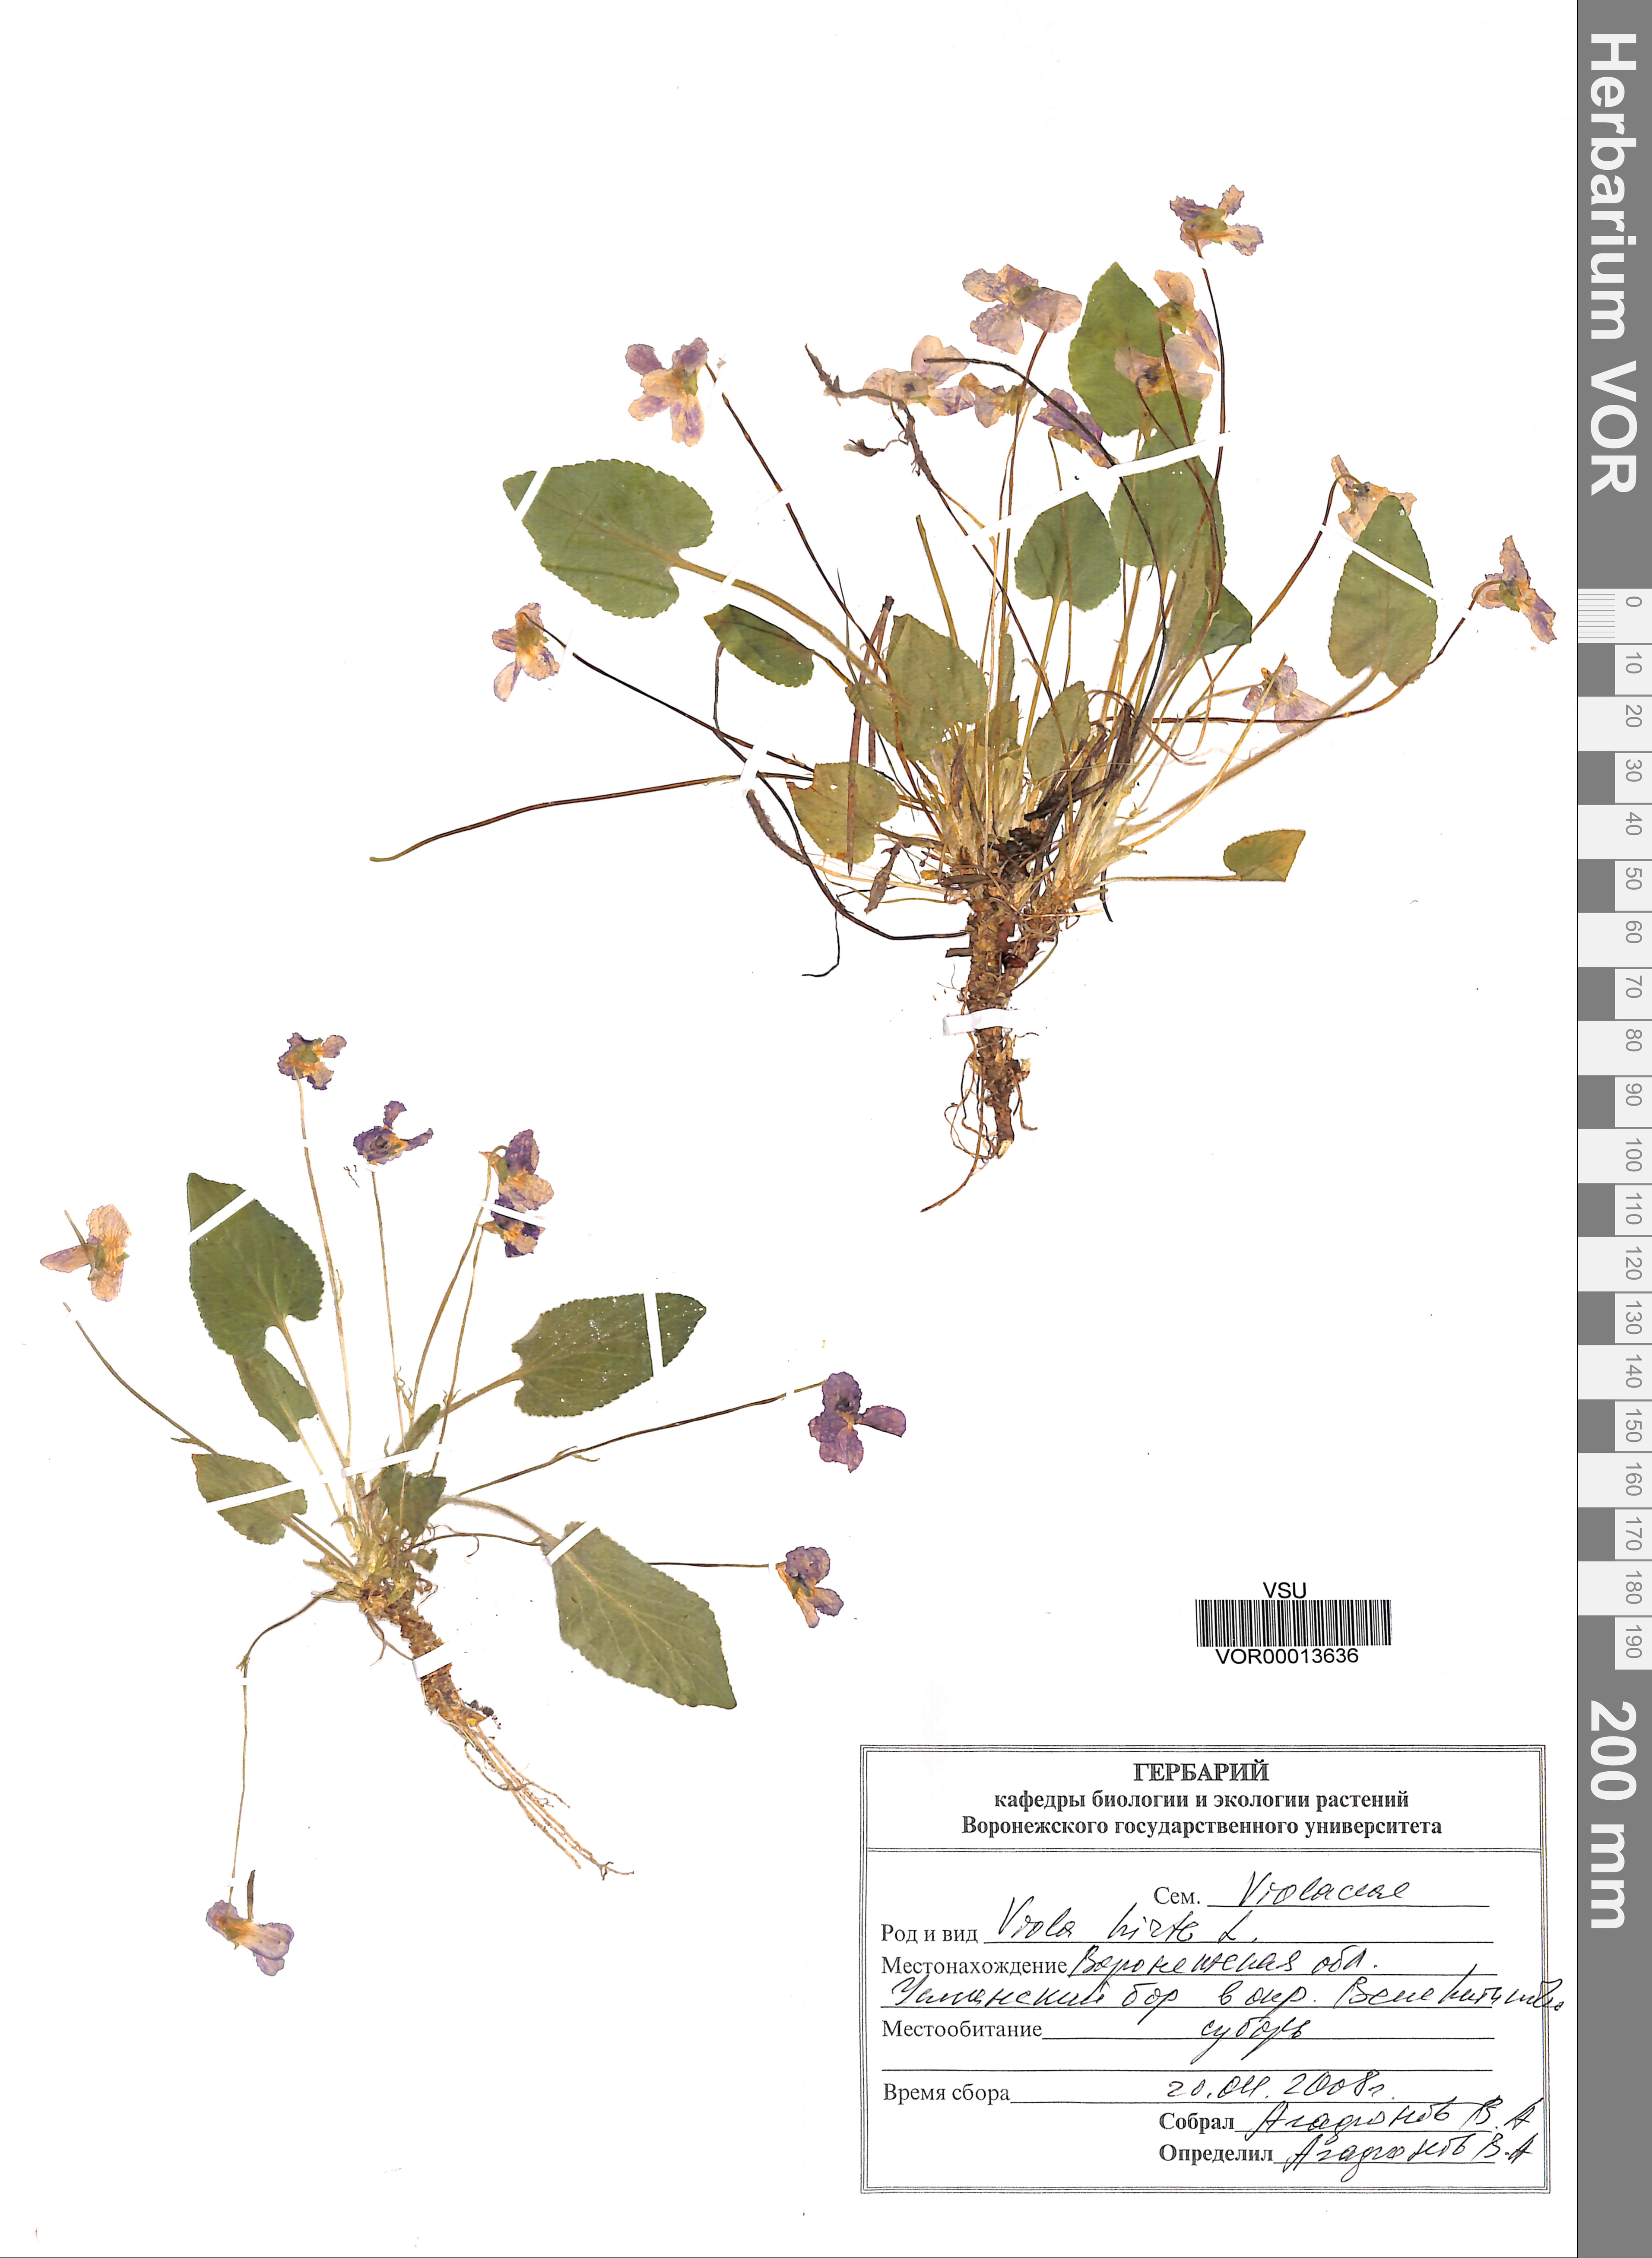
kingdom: Plantae
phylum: Tracheophyta
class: Magnoliopsida
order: Malpighiales
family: Violaceae
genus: Viola
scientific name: Viola hirta
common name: Hairy violet
